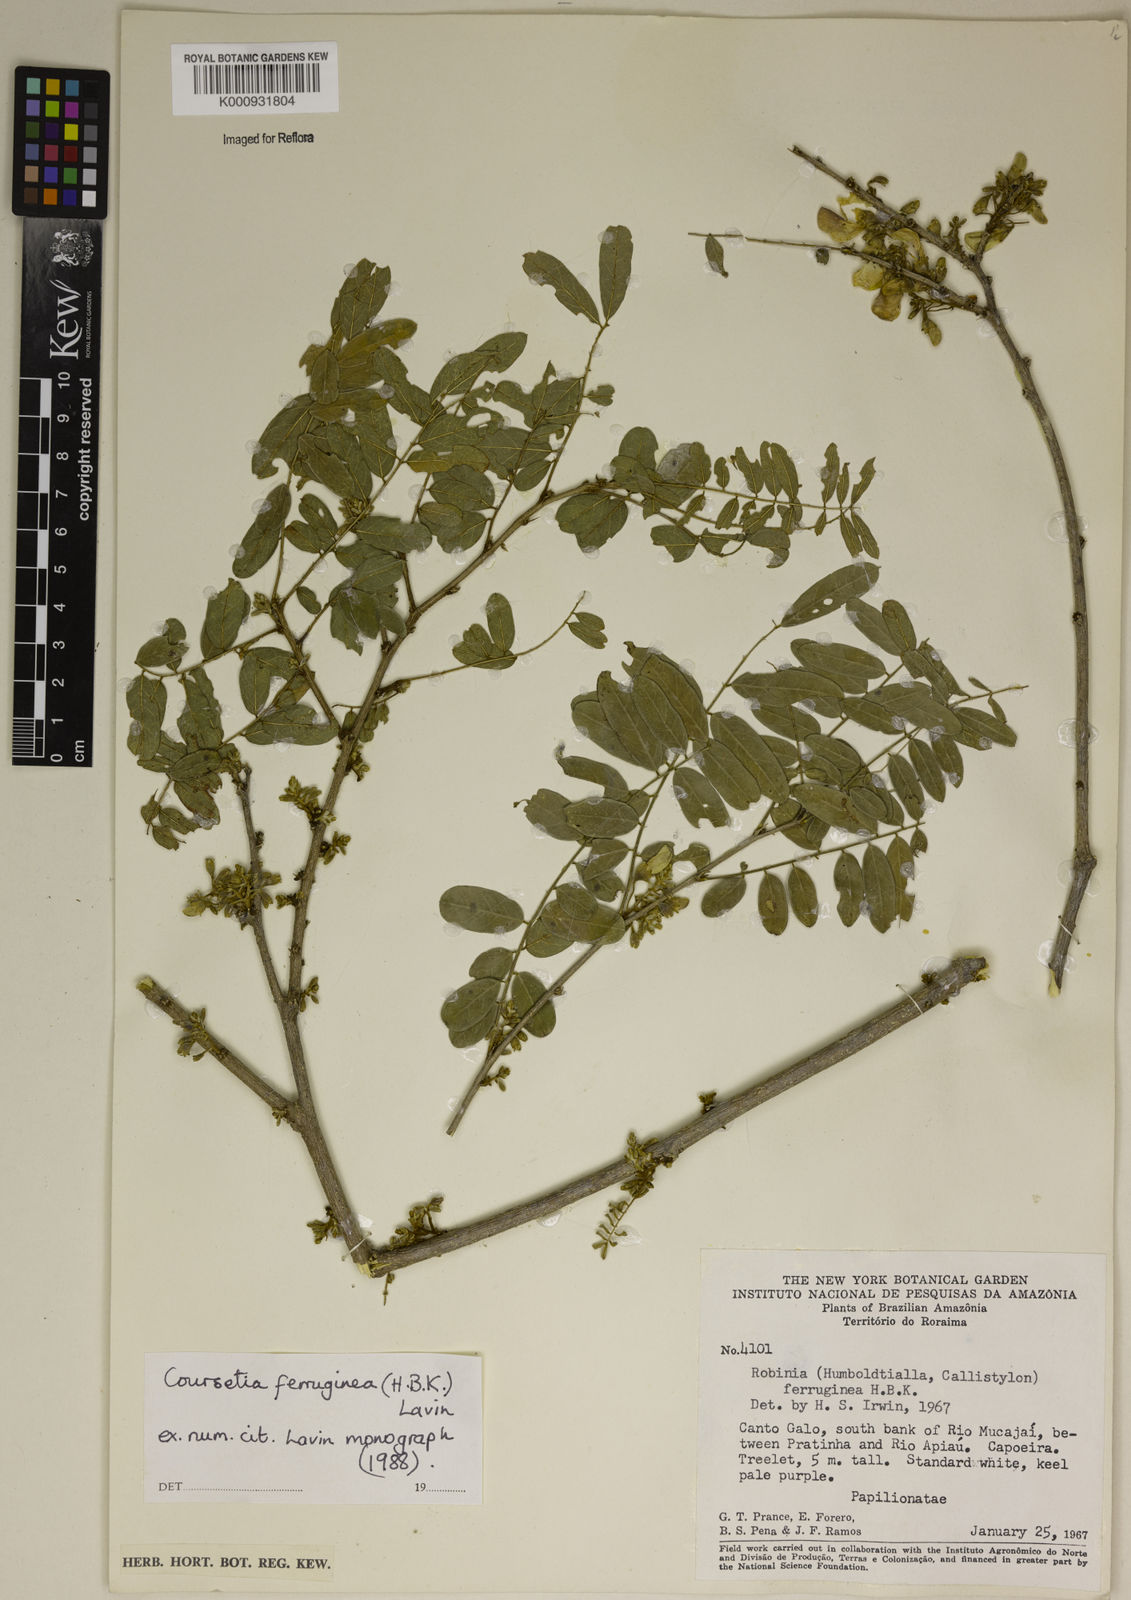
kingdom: Plantae
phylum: Tracheophyta
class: Magnoliopsida
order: Fabales
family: Fabaceae
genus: Coursetia
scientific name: Coursetia ferruginea
